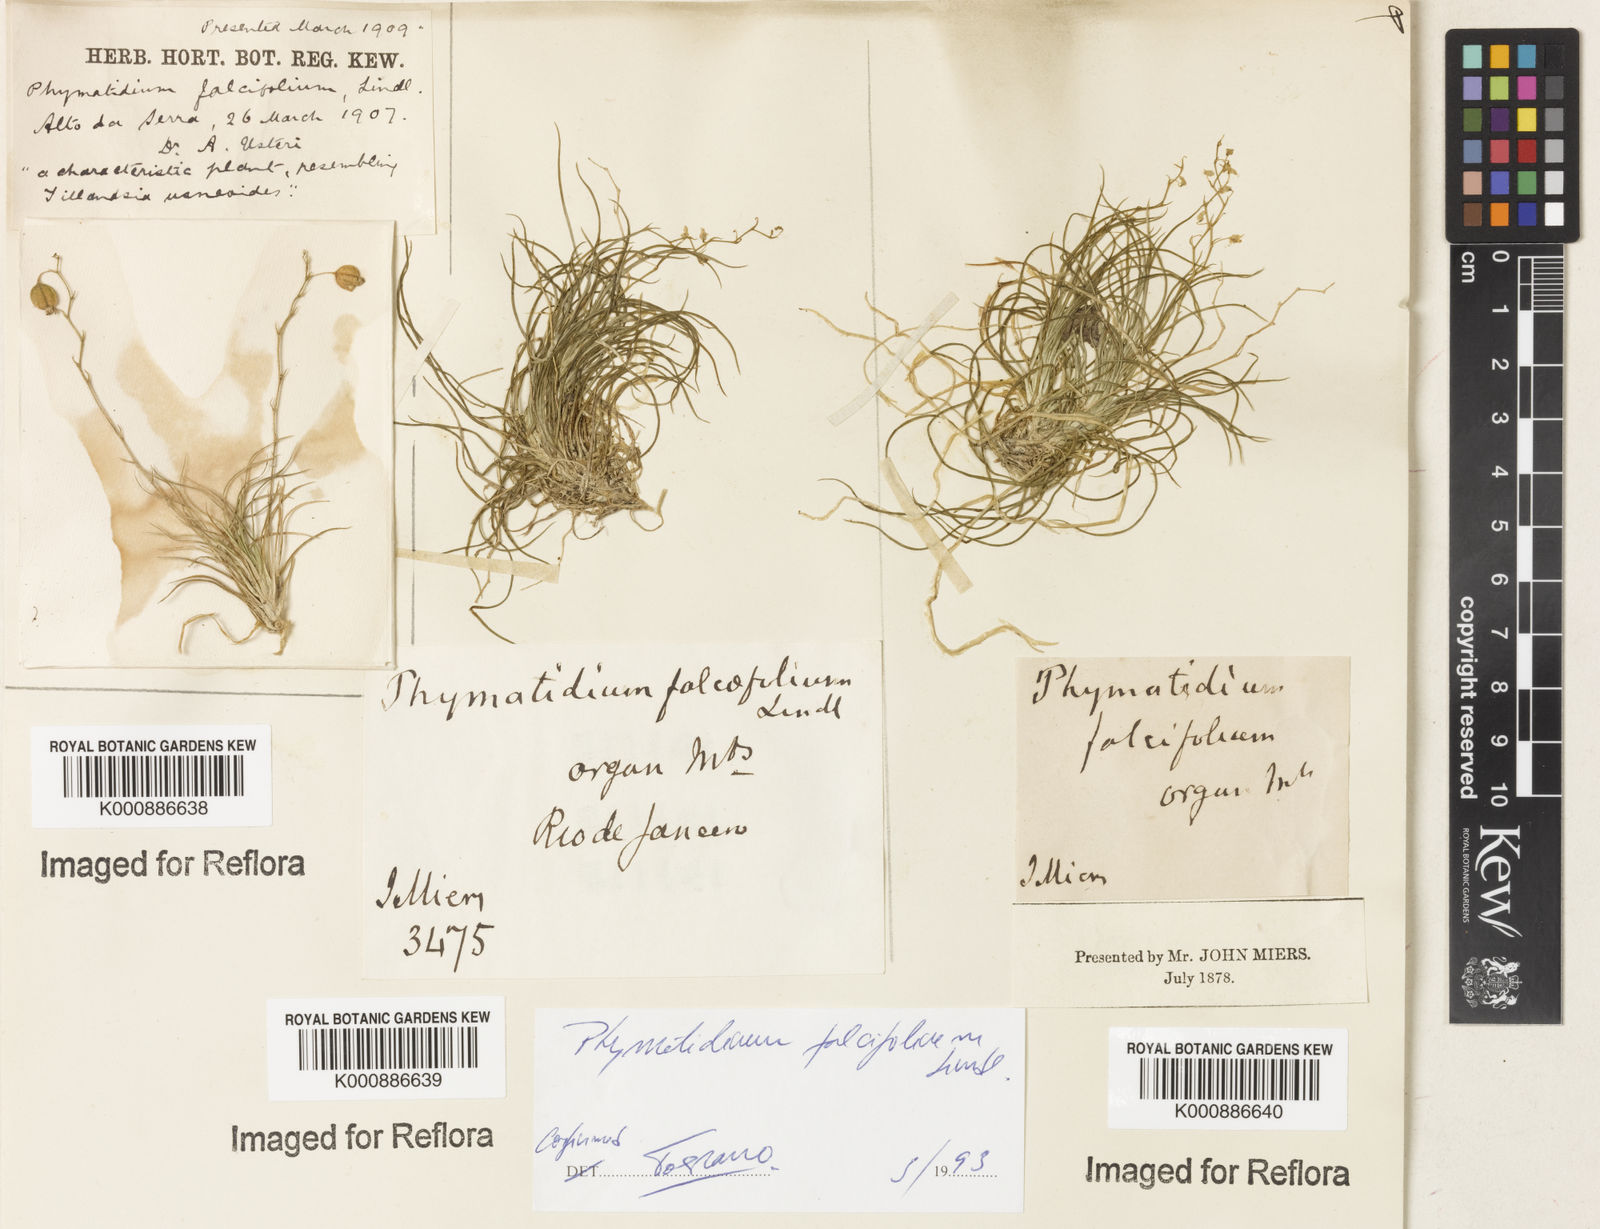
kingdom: Plantae
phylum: Tracheophyta
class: Liliopsida
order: Asparagales
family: Orchidaceae
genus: Phymatidium
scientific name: Phymatidium falcifolium
